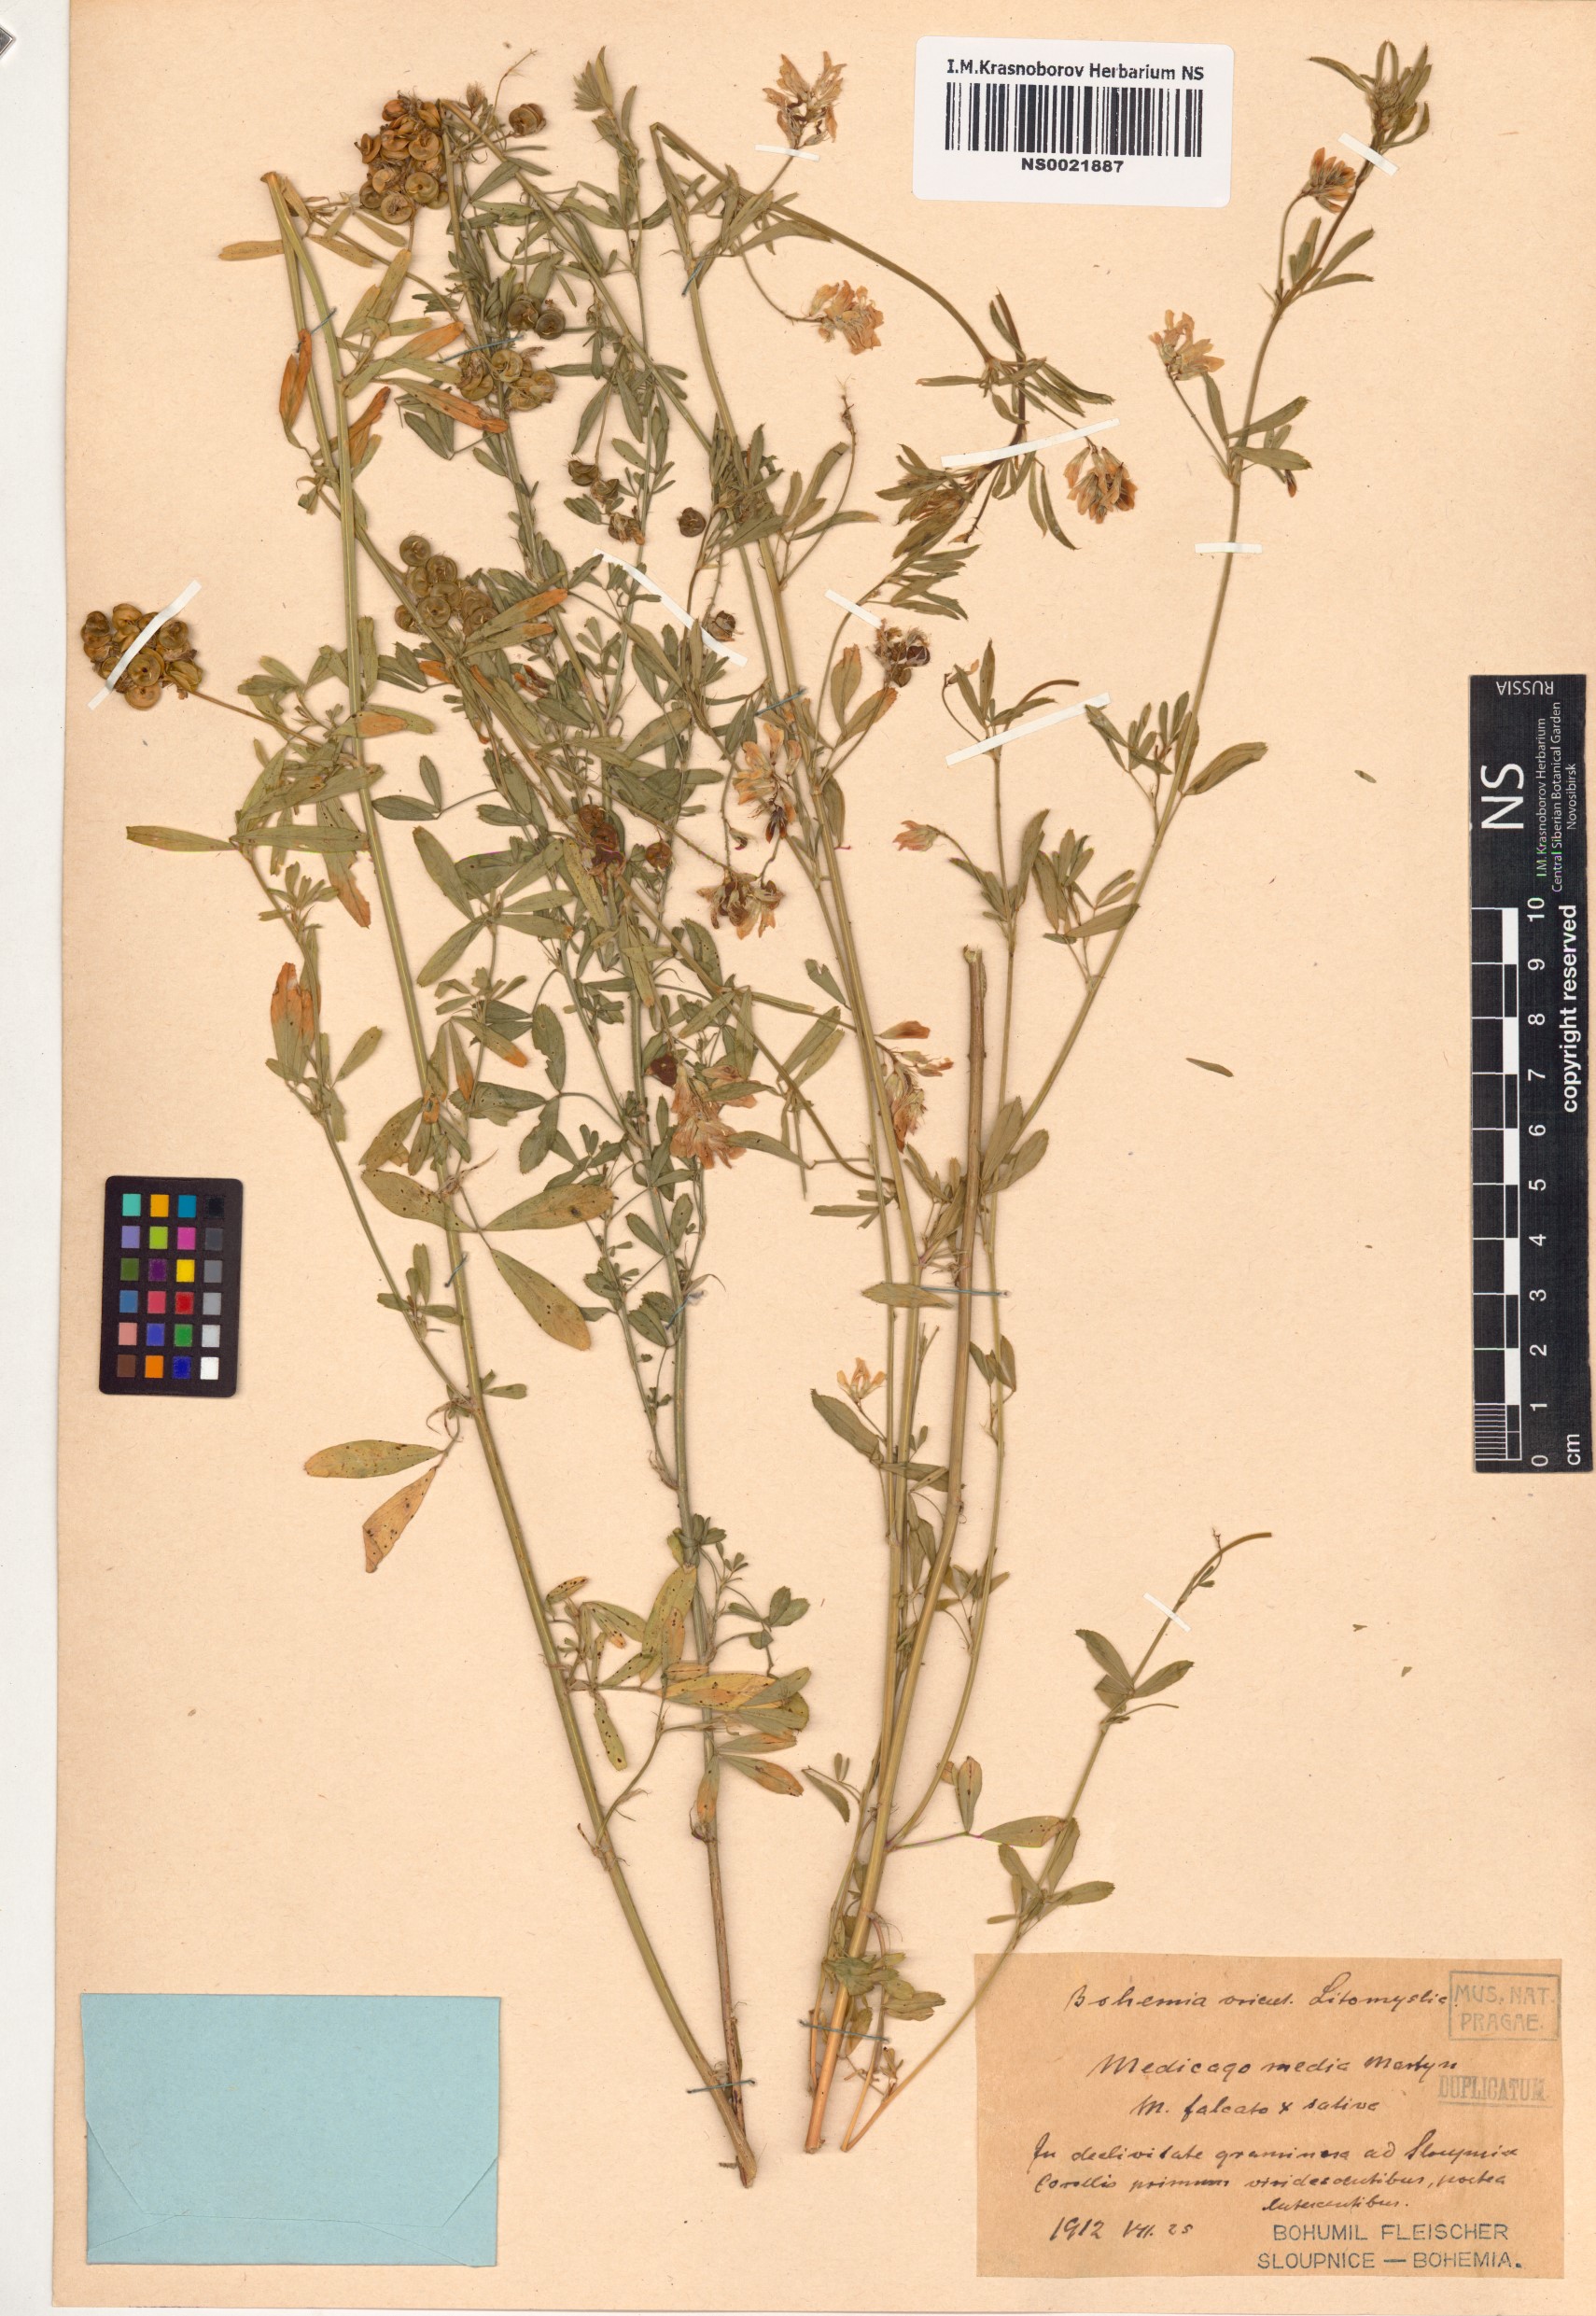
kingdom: Plantae
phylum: Tracheophyta
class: Magnoliopsida
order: Fabales
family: Fabaceae
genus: Medicago
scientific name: Medicago varia
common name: Sand lucerne
